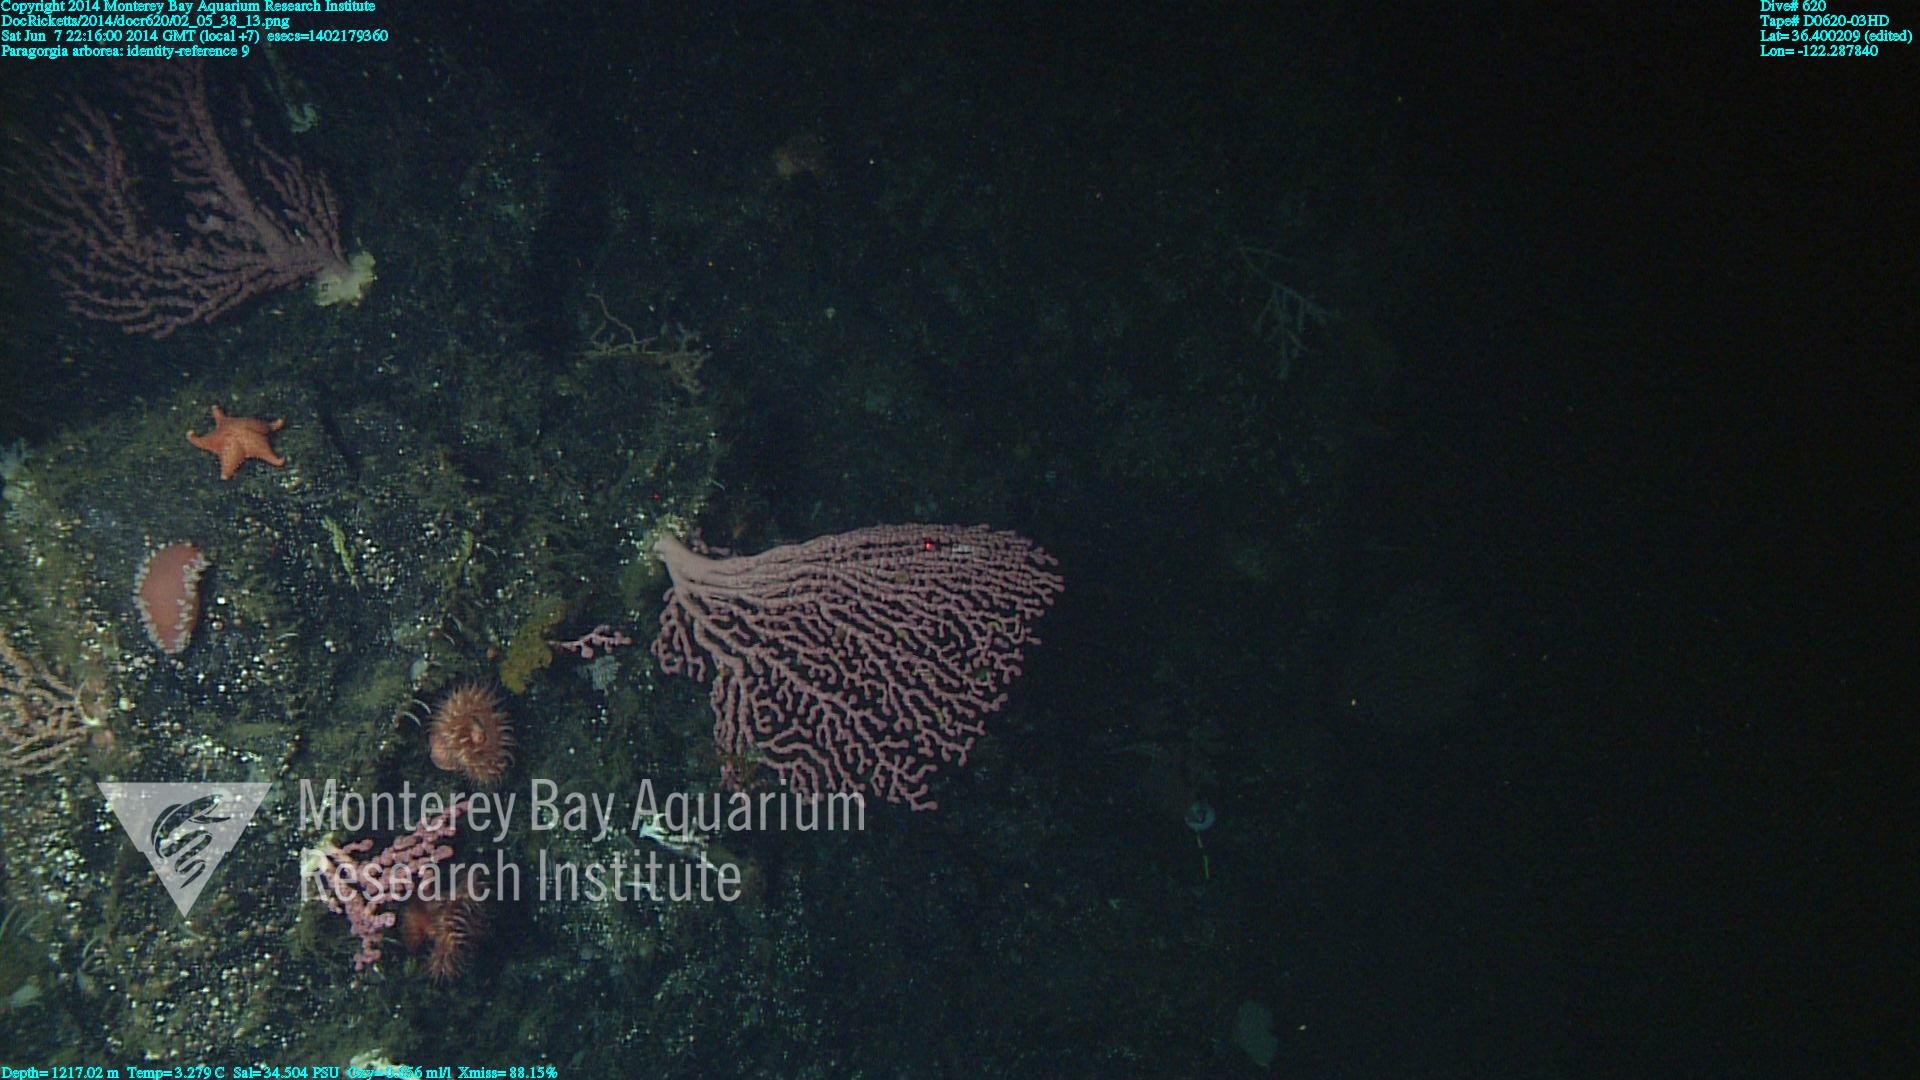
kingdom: Animalia
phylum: Cnidaria
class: Anthozoa
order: Scleralcyonacea
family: Coralliidae
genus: Paragorgia
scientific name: Paragorgia arborea
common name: Bubble gum coral
